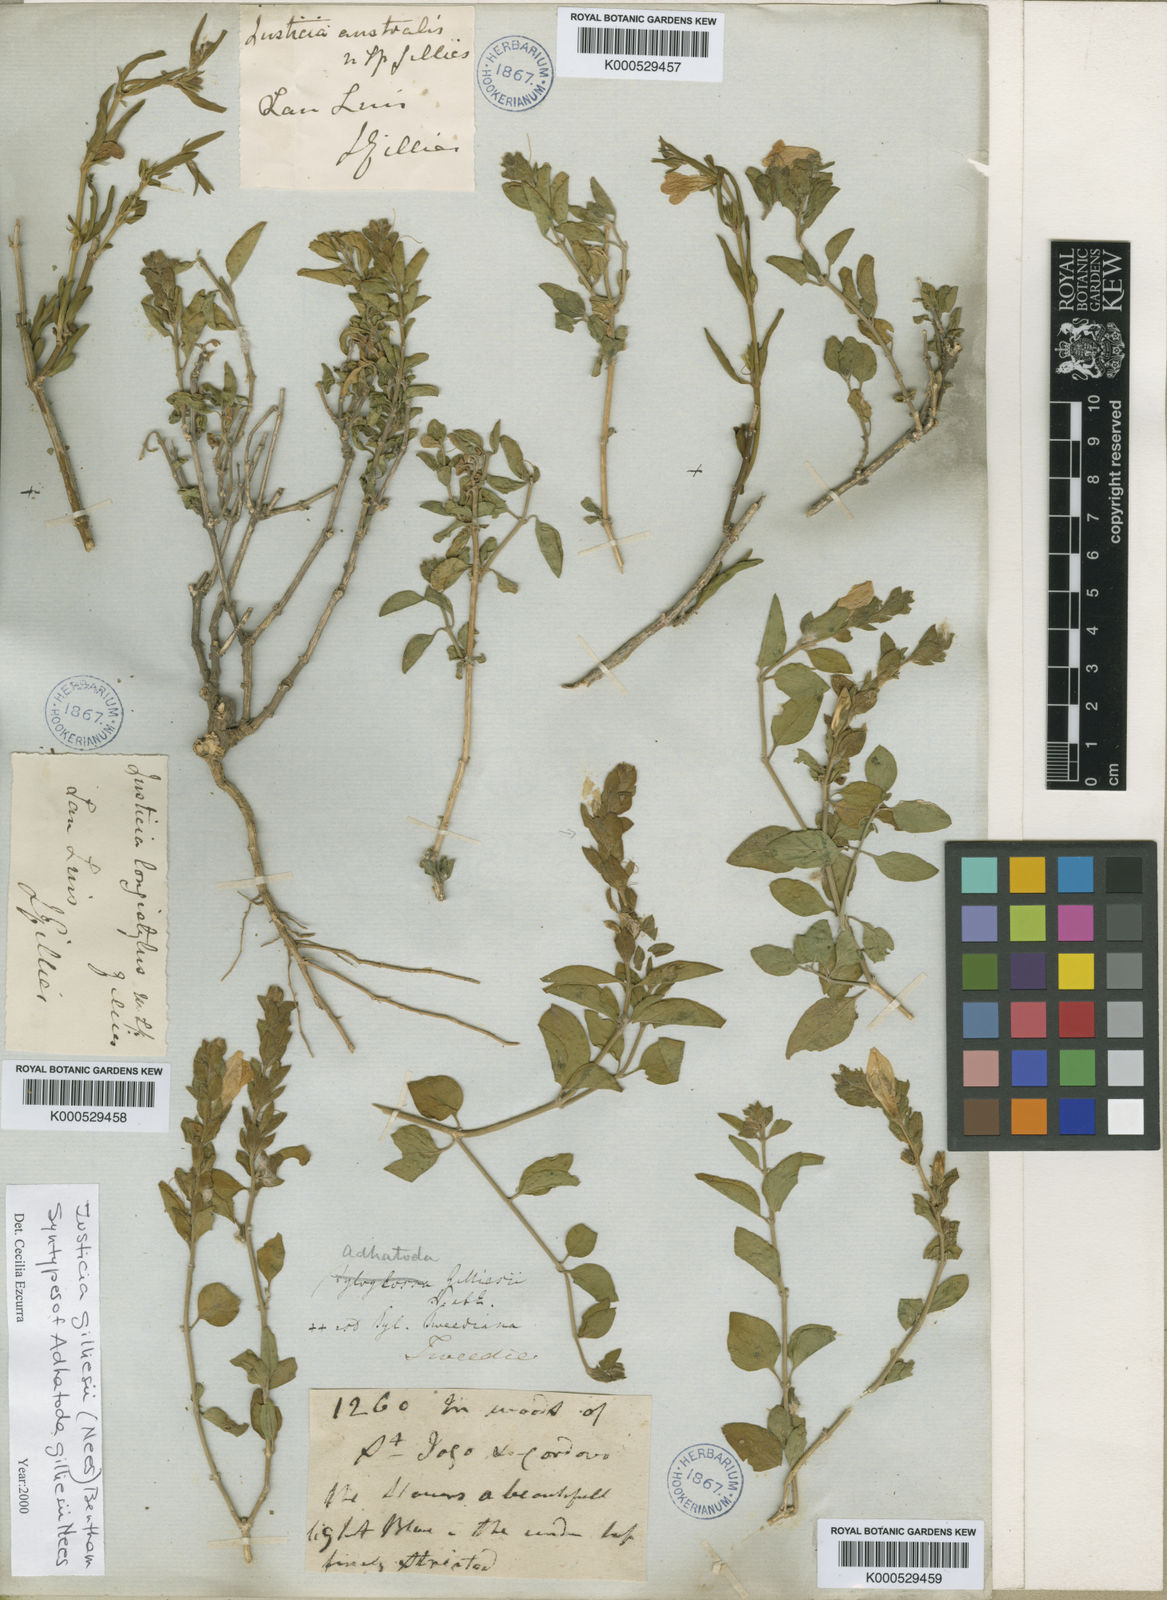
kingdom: Plantae
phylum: Tracheophyta
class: Magnoliopsida
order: Lamiales
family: Acanthaceae
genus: Justicia
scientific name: Justicia
